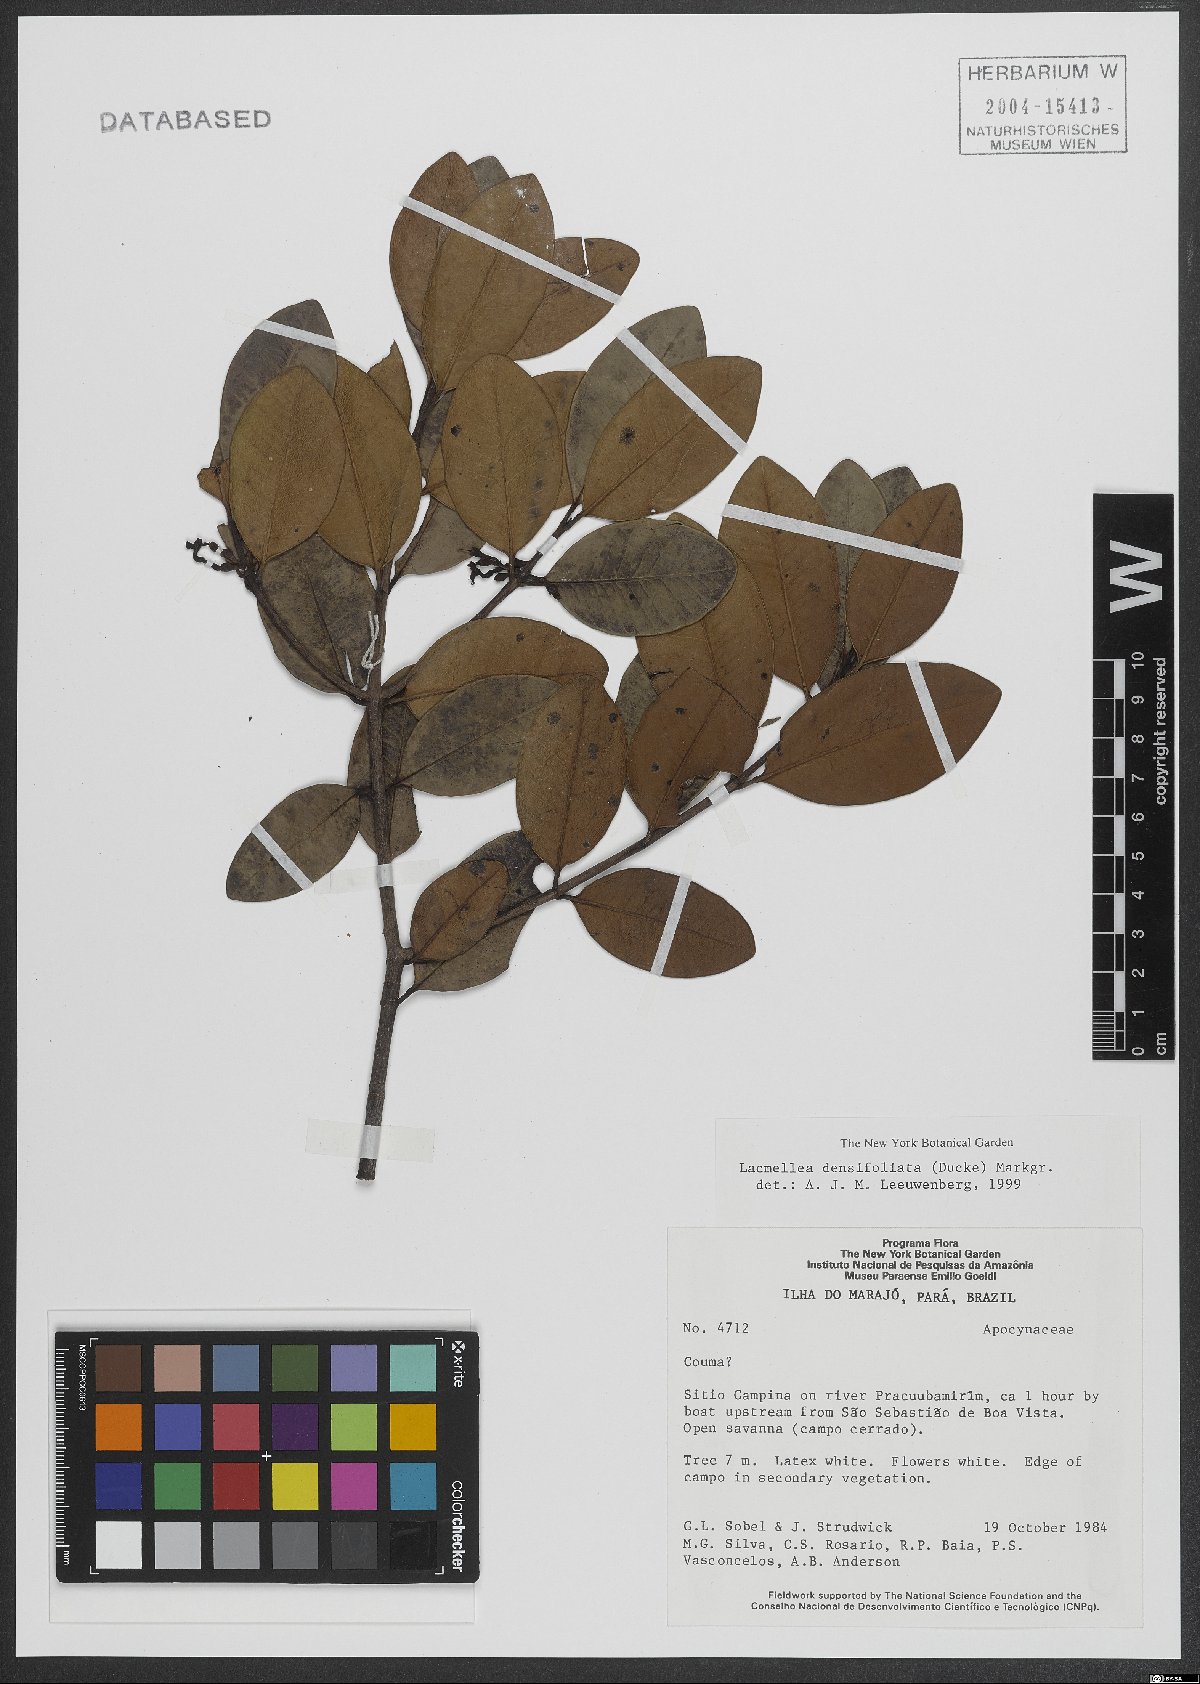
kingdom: Plantae
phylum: Tracheophyta
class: Magnoliopsida
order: Gentianales
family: Apocynaceae
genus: Lacmellea
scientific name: Lacmellea densifoliata
